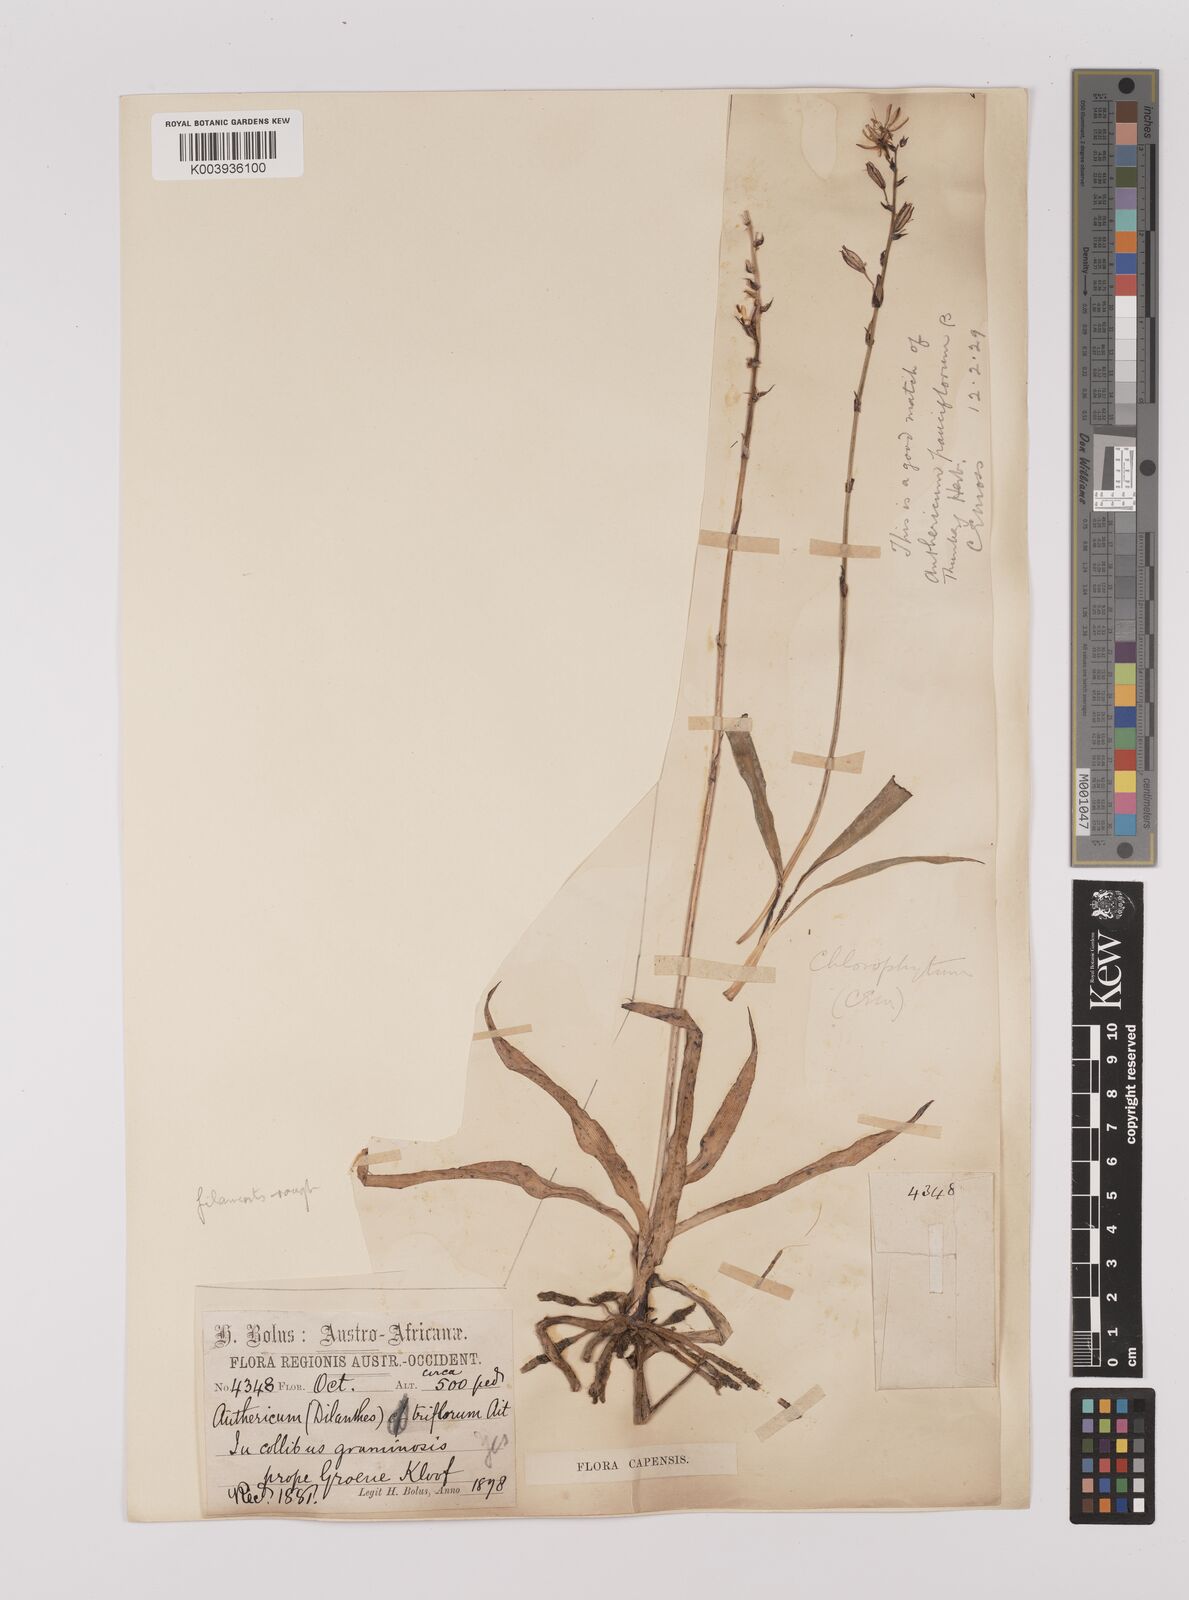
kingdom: Plantae
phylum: Tracheophyta
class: Liliopsida
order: Asparagales
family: Asparagaceae
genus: Chlorophytum
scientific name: Chlorophytum triflorum
